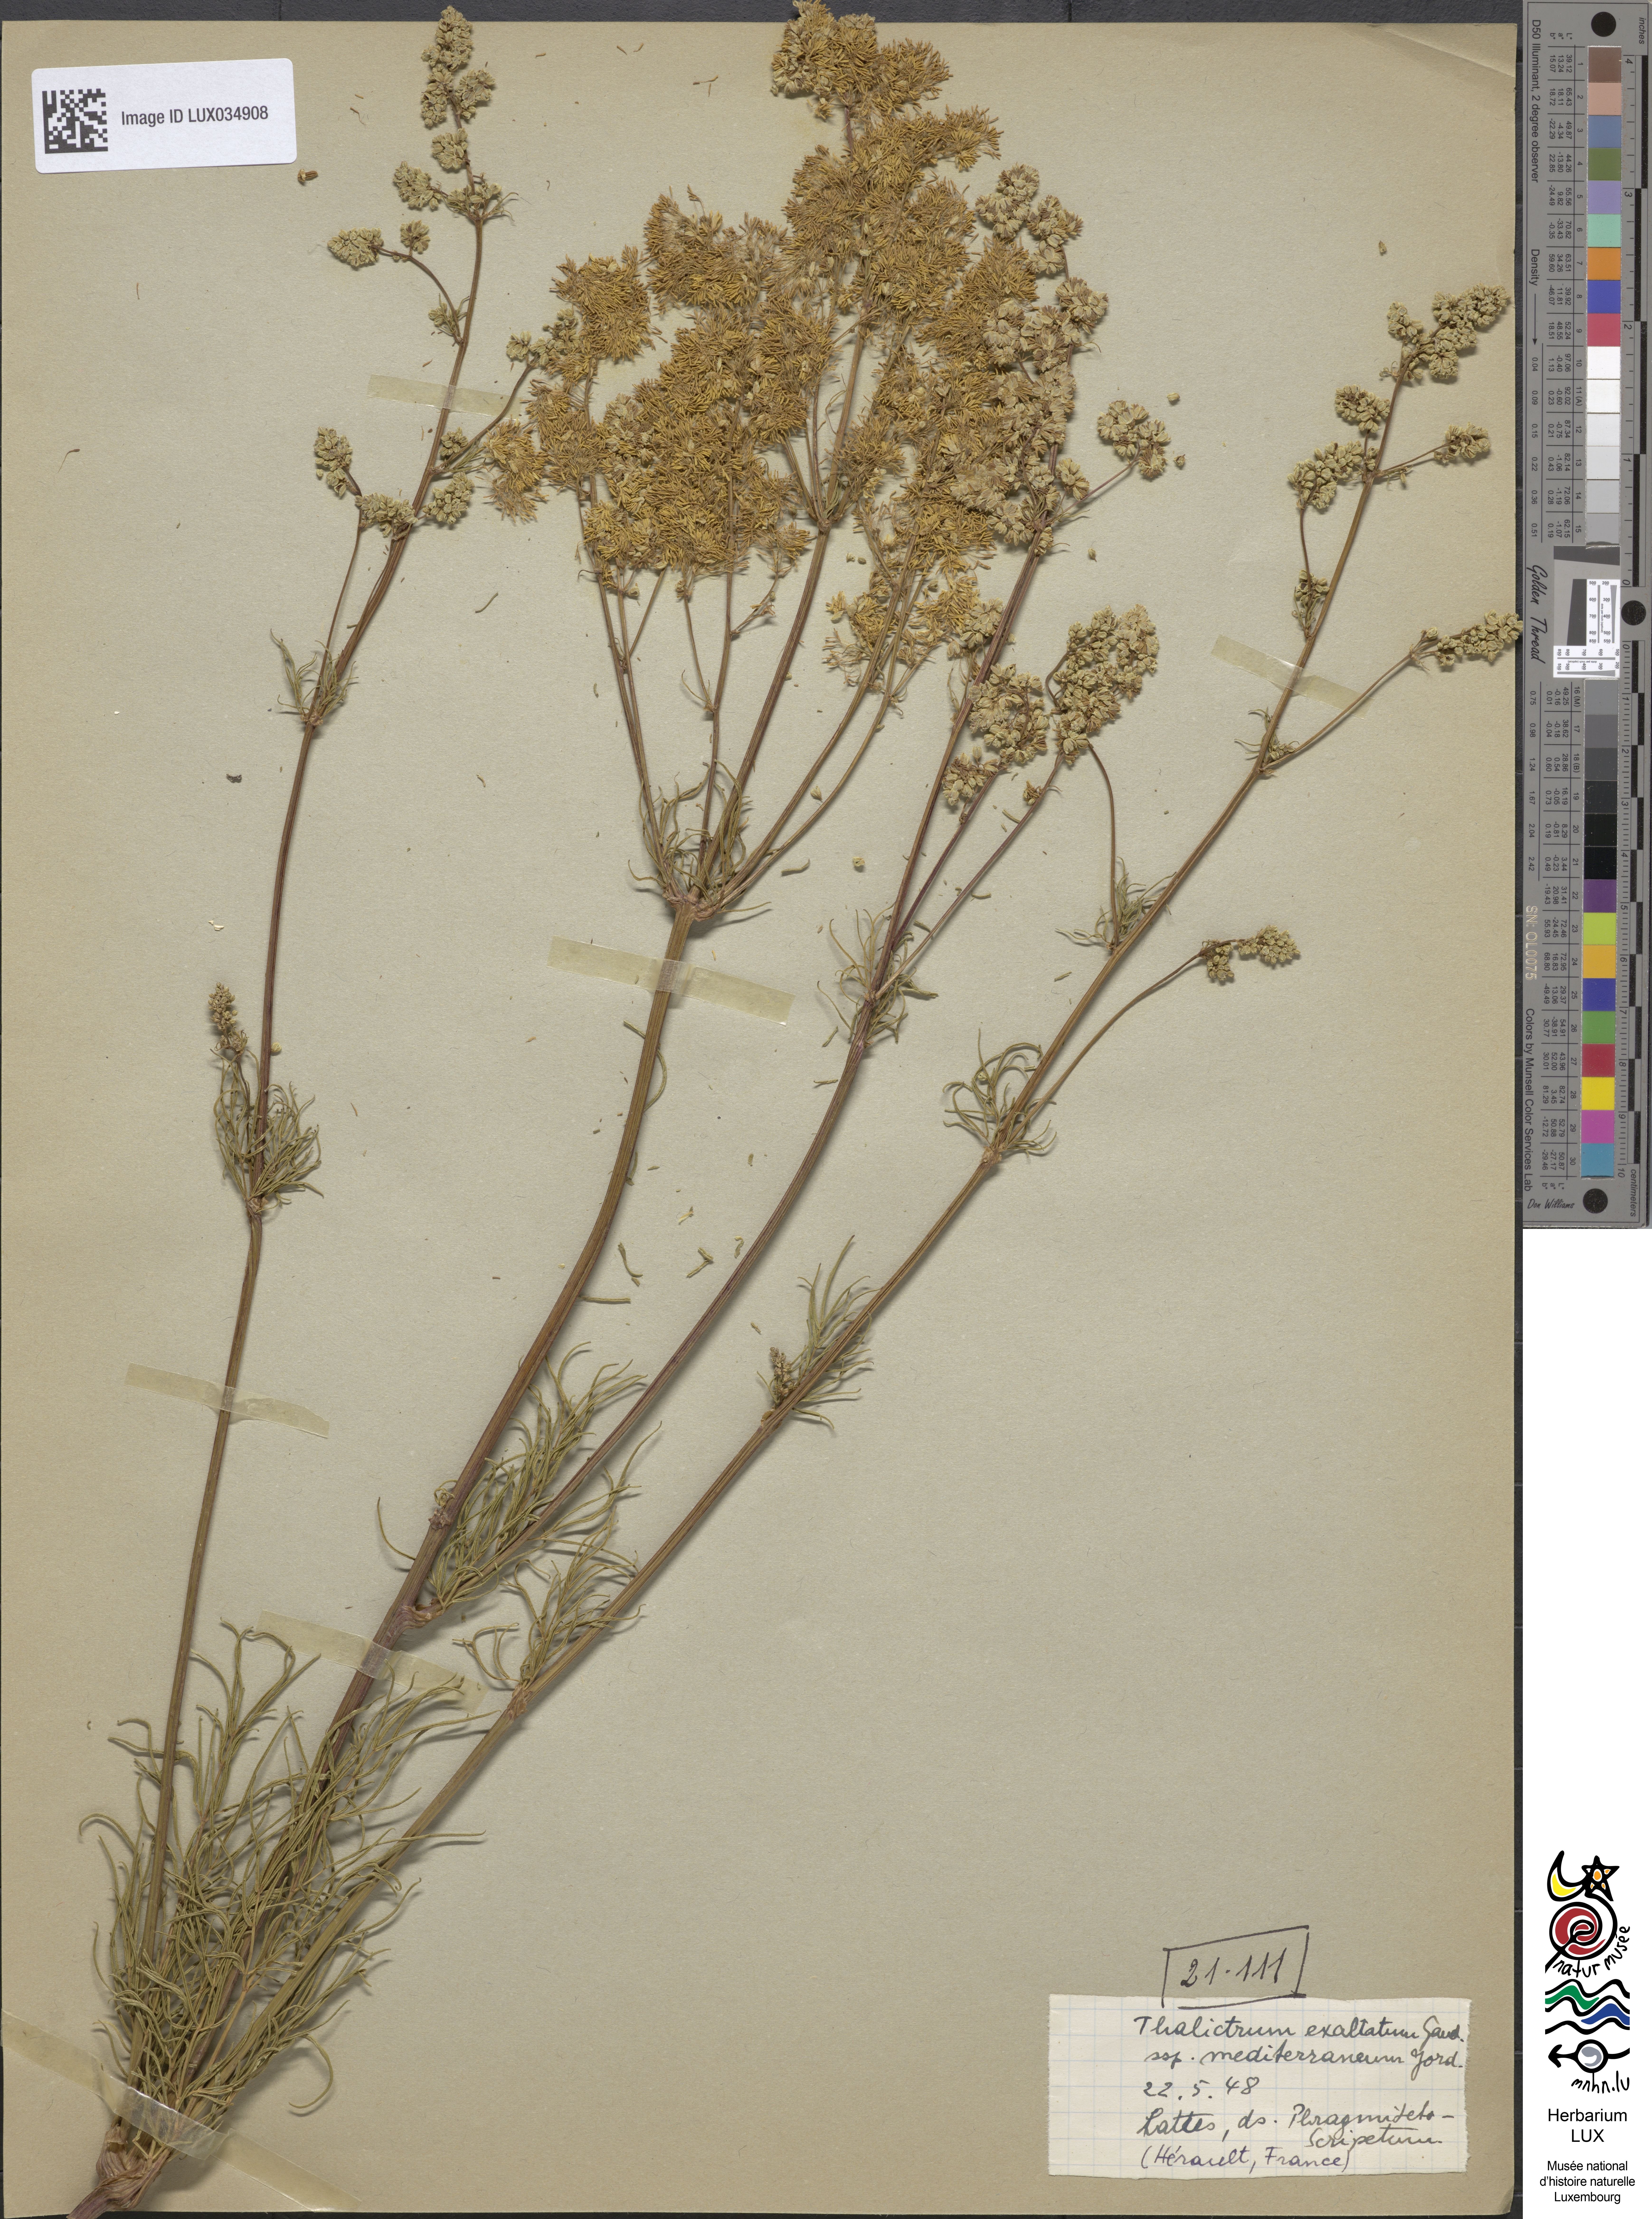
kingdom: Plantae
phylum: Tracheophyta
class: Magnoliopsida
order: Ranunculales
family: Ranunculaceae
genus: Thalictrum
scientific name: Thalictrum flavum
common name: Common meadow-rue
